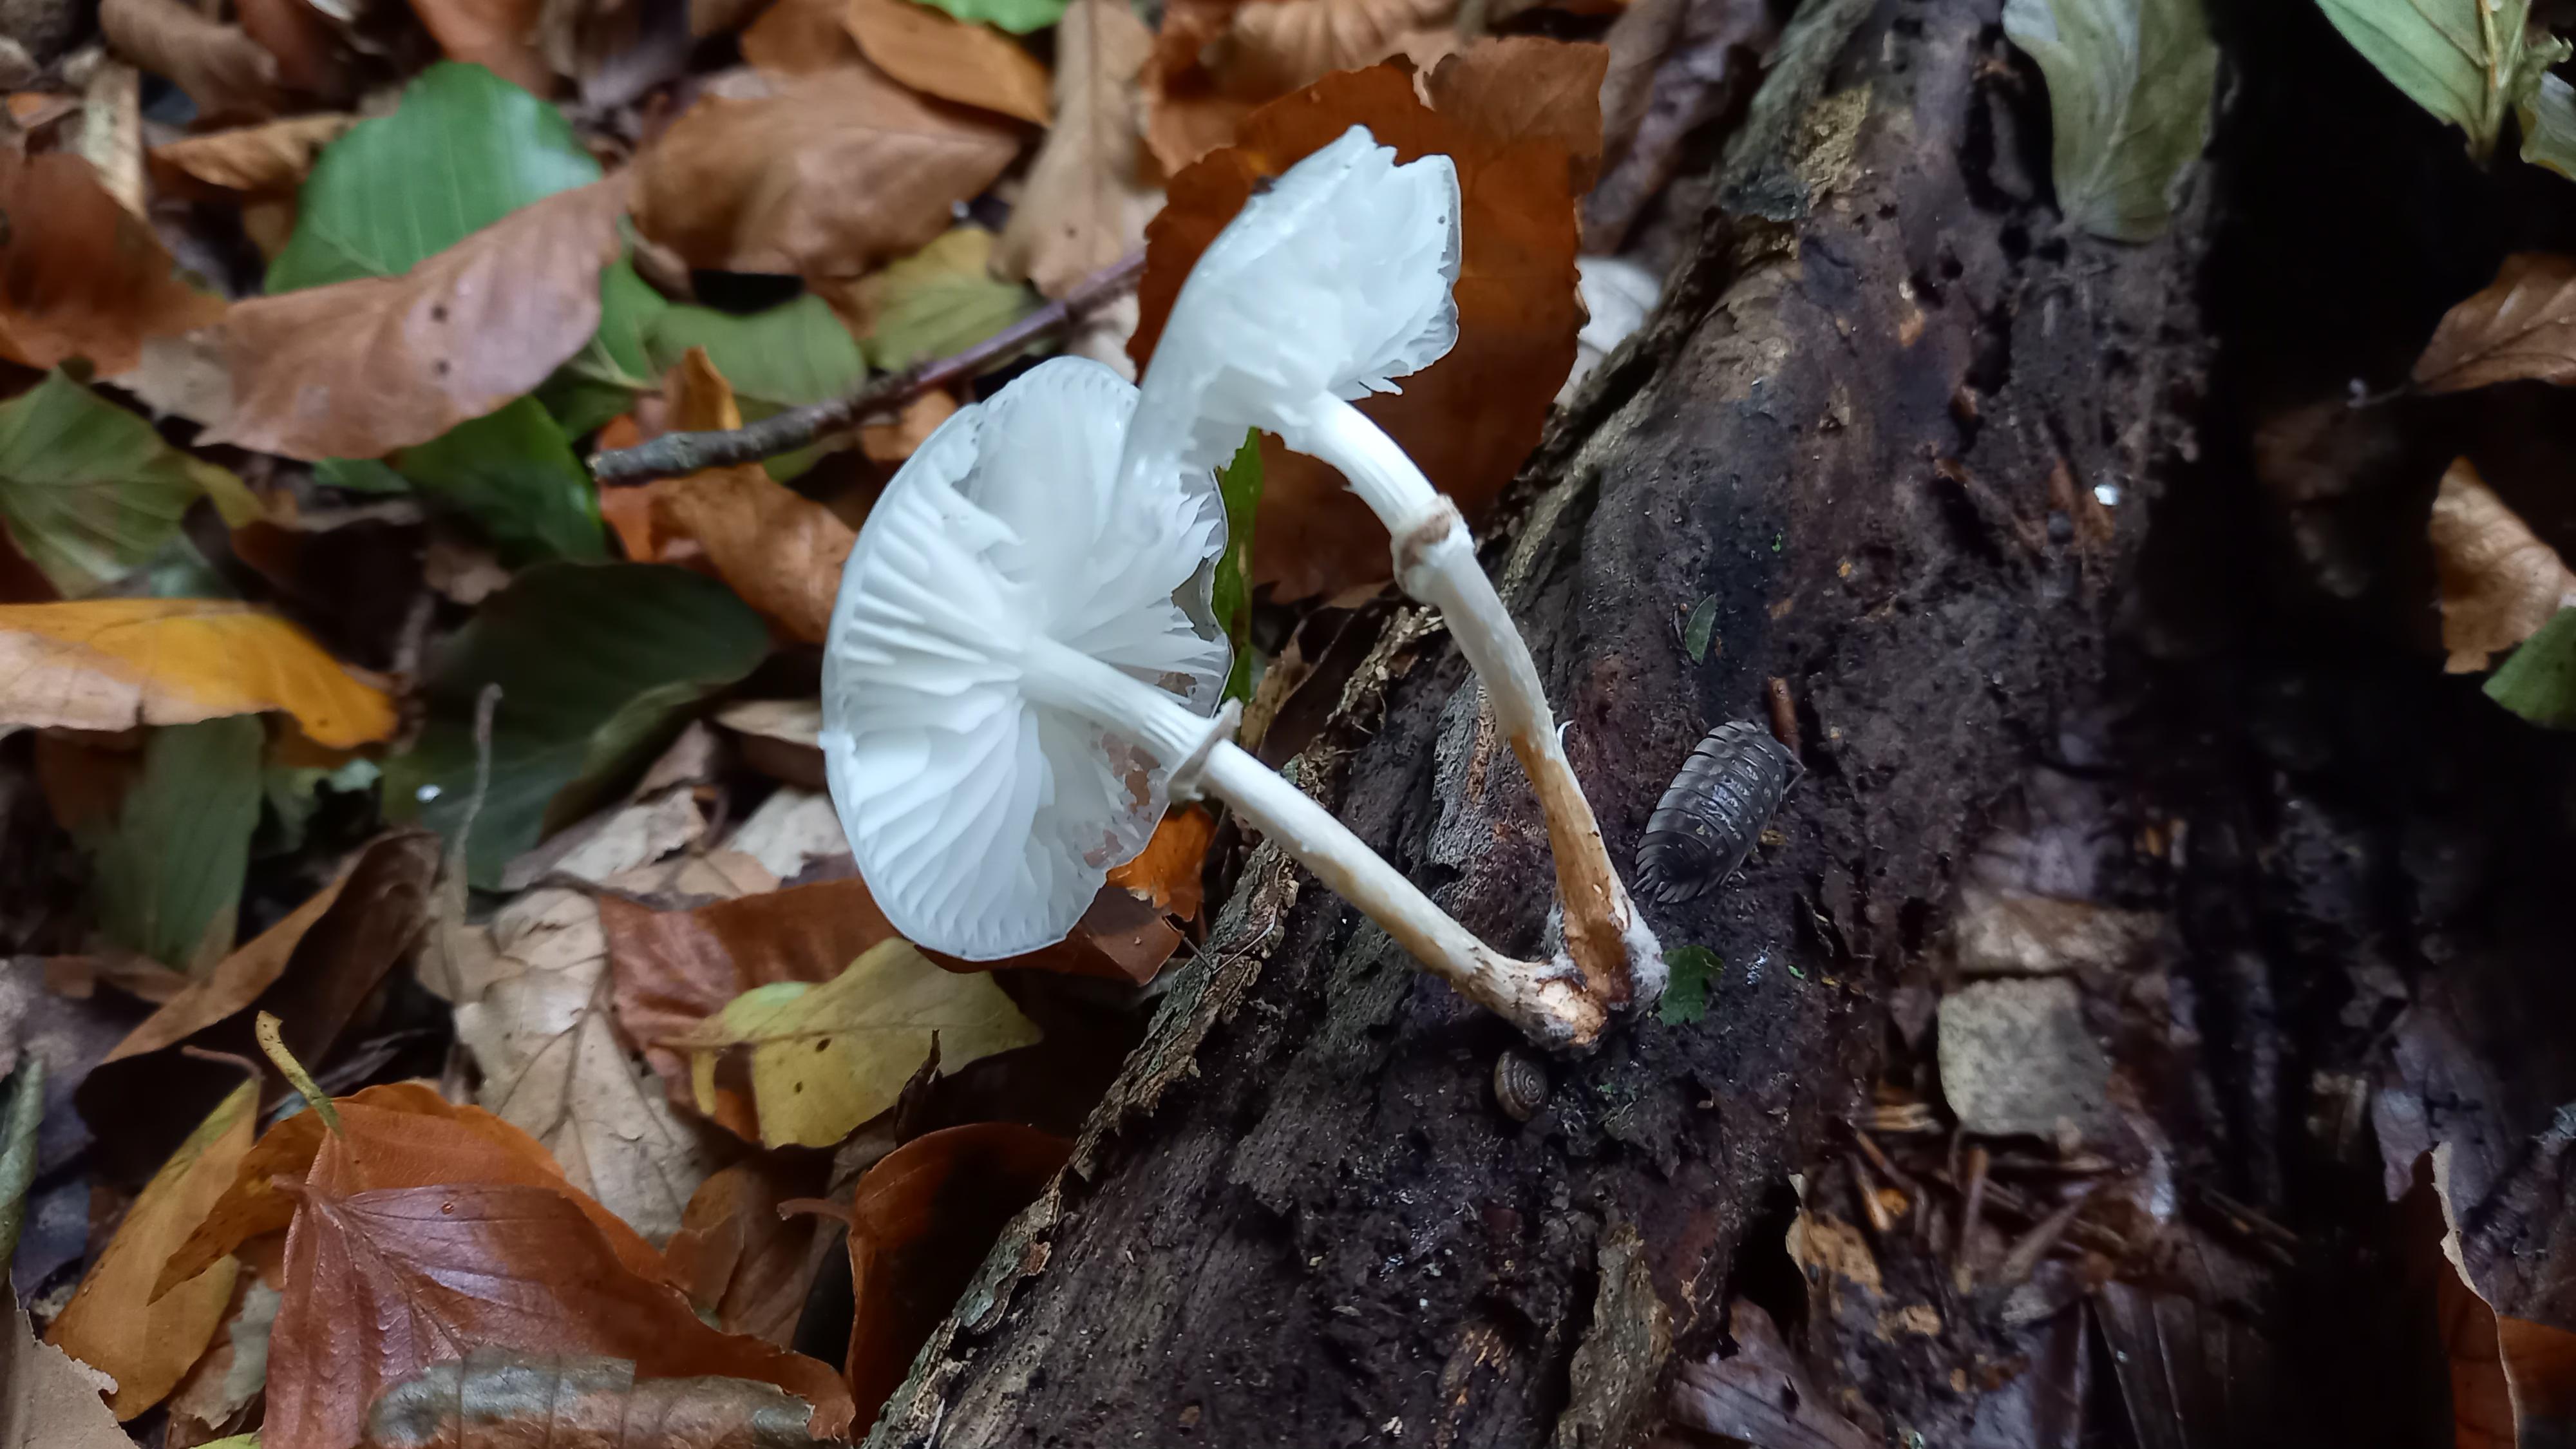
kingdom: Fungi
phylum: Basidiomycota
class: Agaricomycetes
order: Agaricales
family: Physalacriaceae
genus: Mucidula
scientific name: Mucidula mucida
